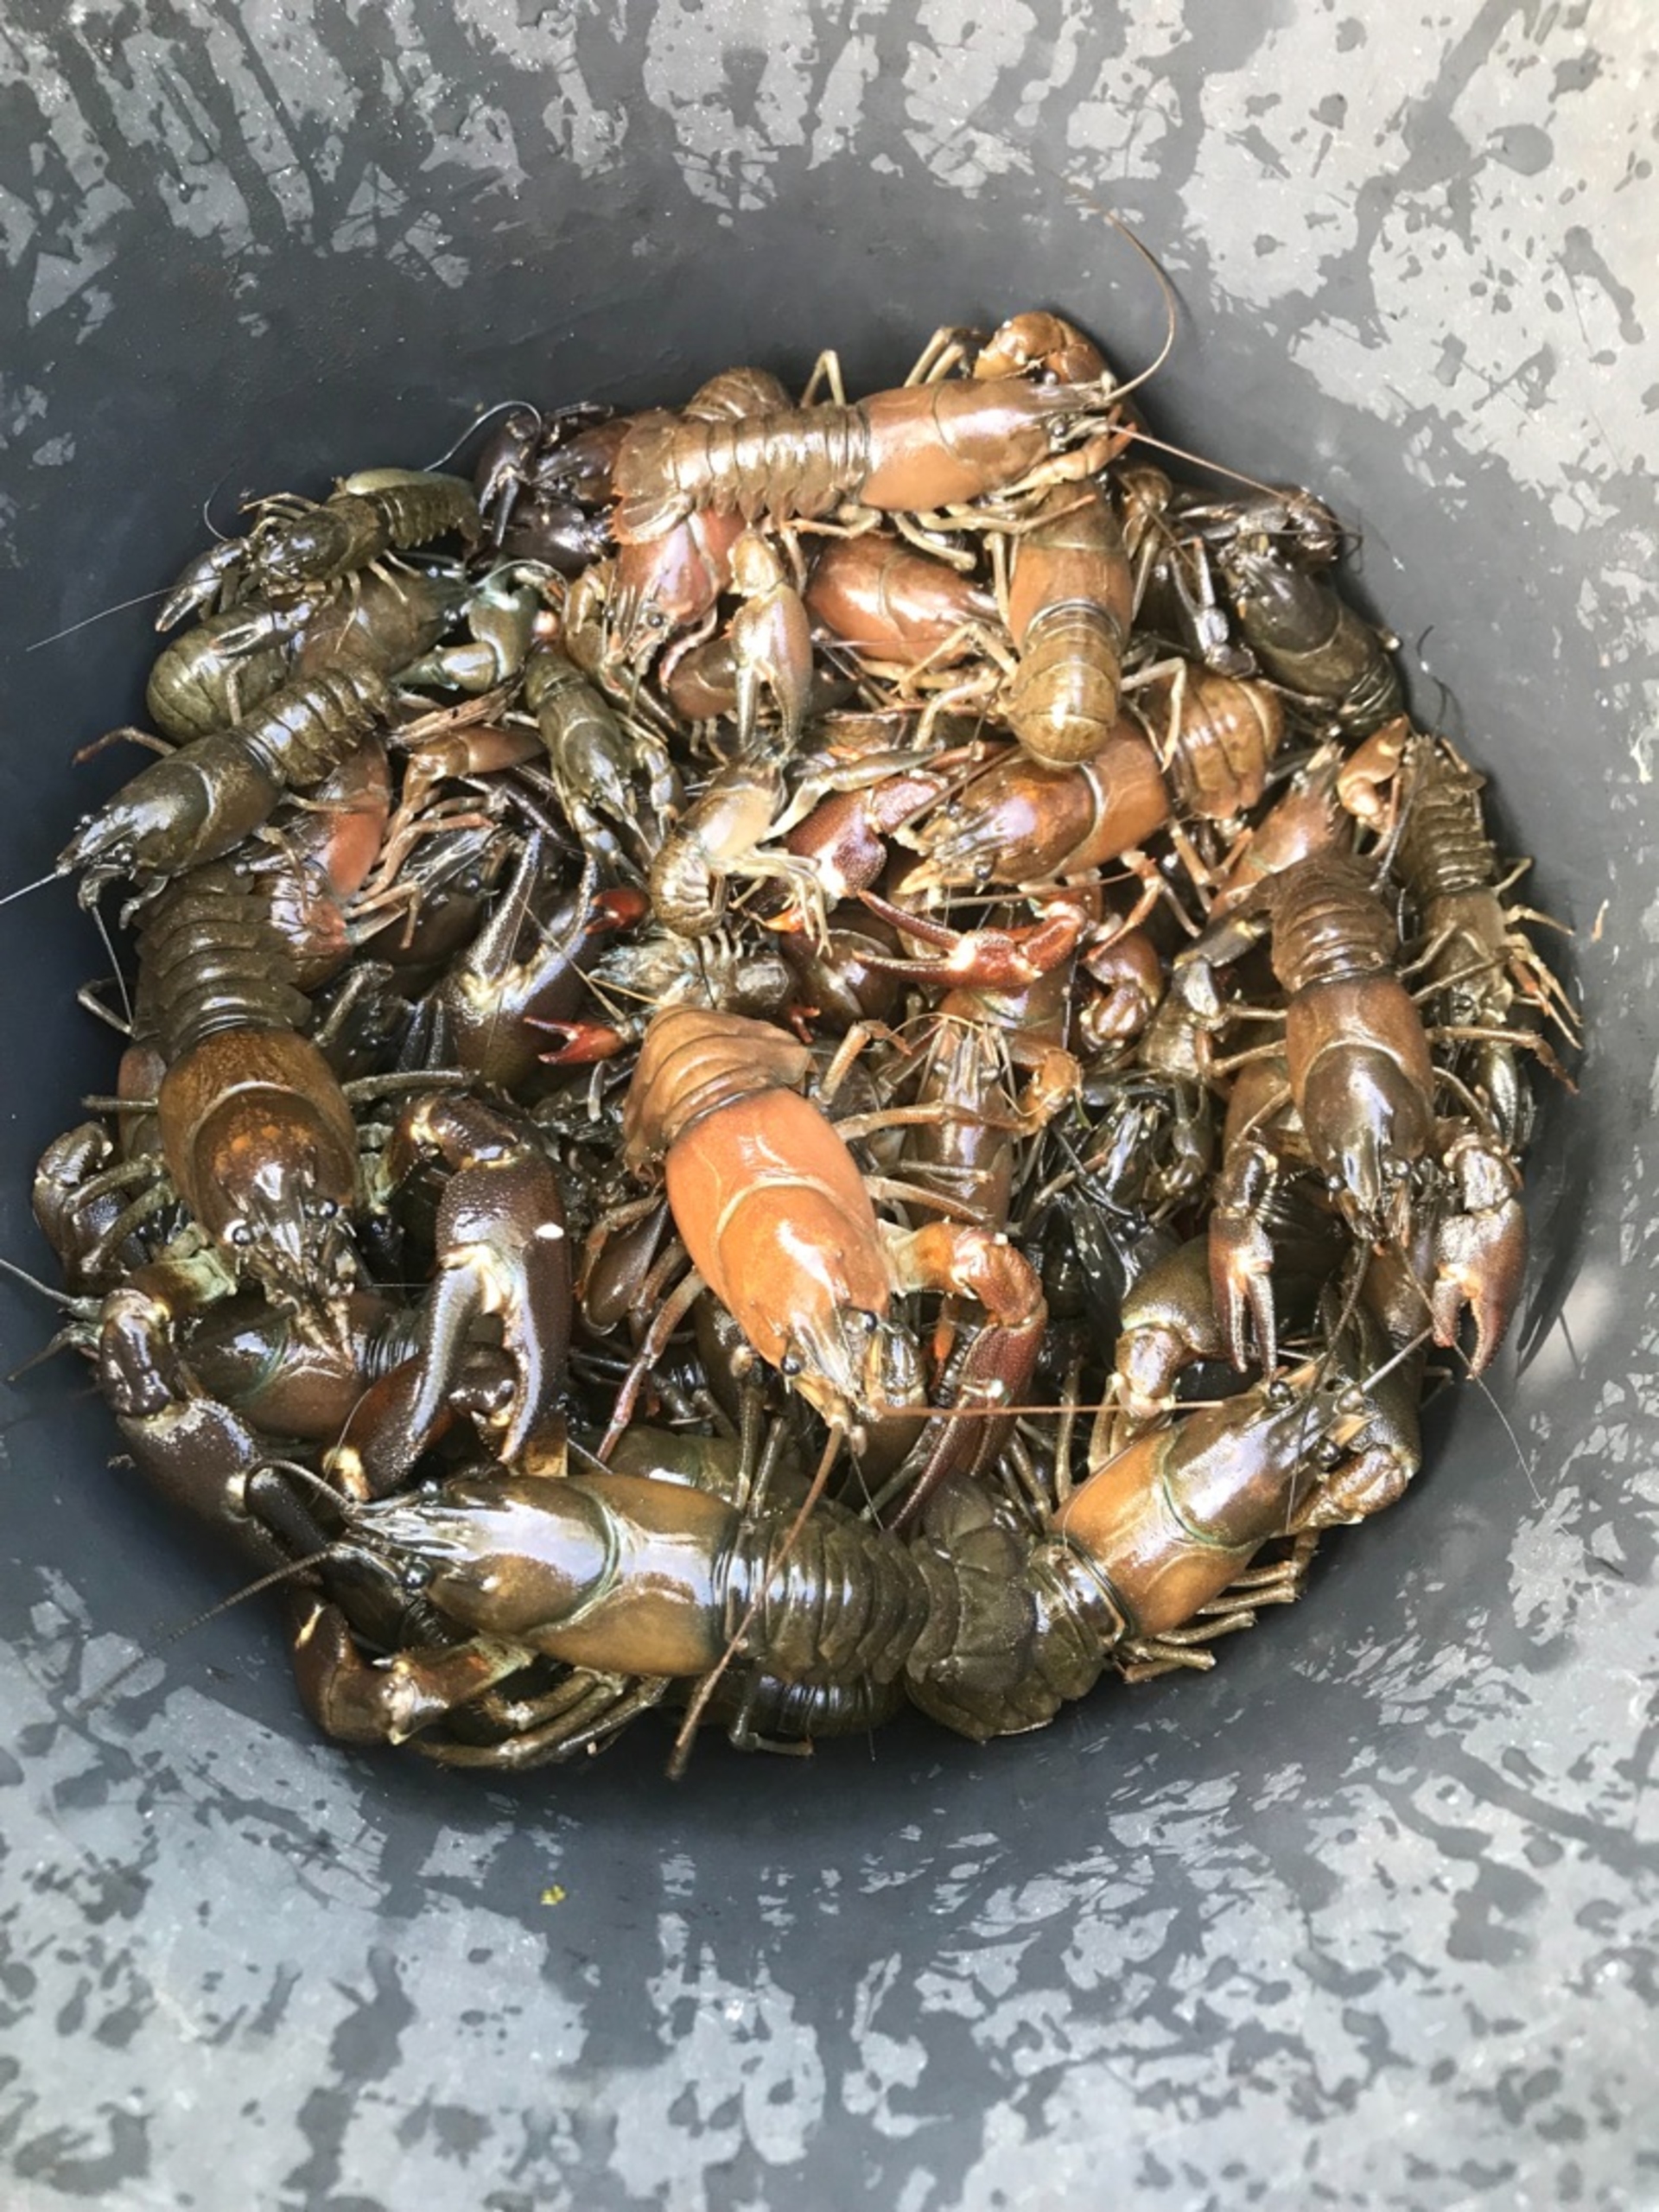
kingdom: Animalia
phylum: Arthropoda
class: Malacostraca
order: Decapoda
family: Astacidae
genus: Pacifastacus
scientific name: Pacifastacus leniusculus
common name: Signalkrebs
